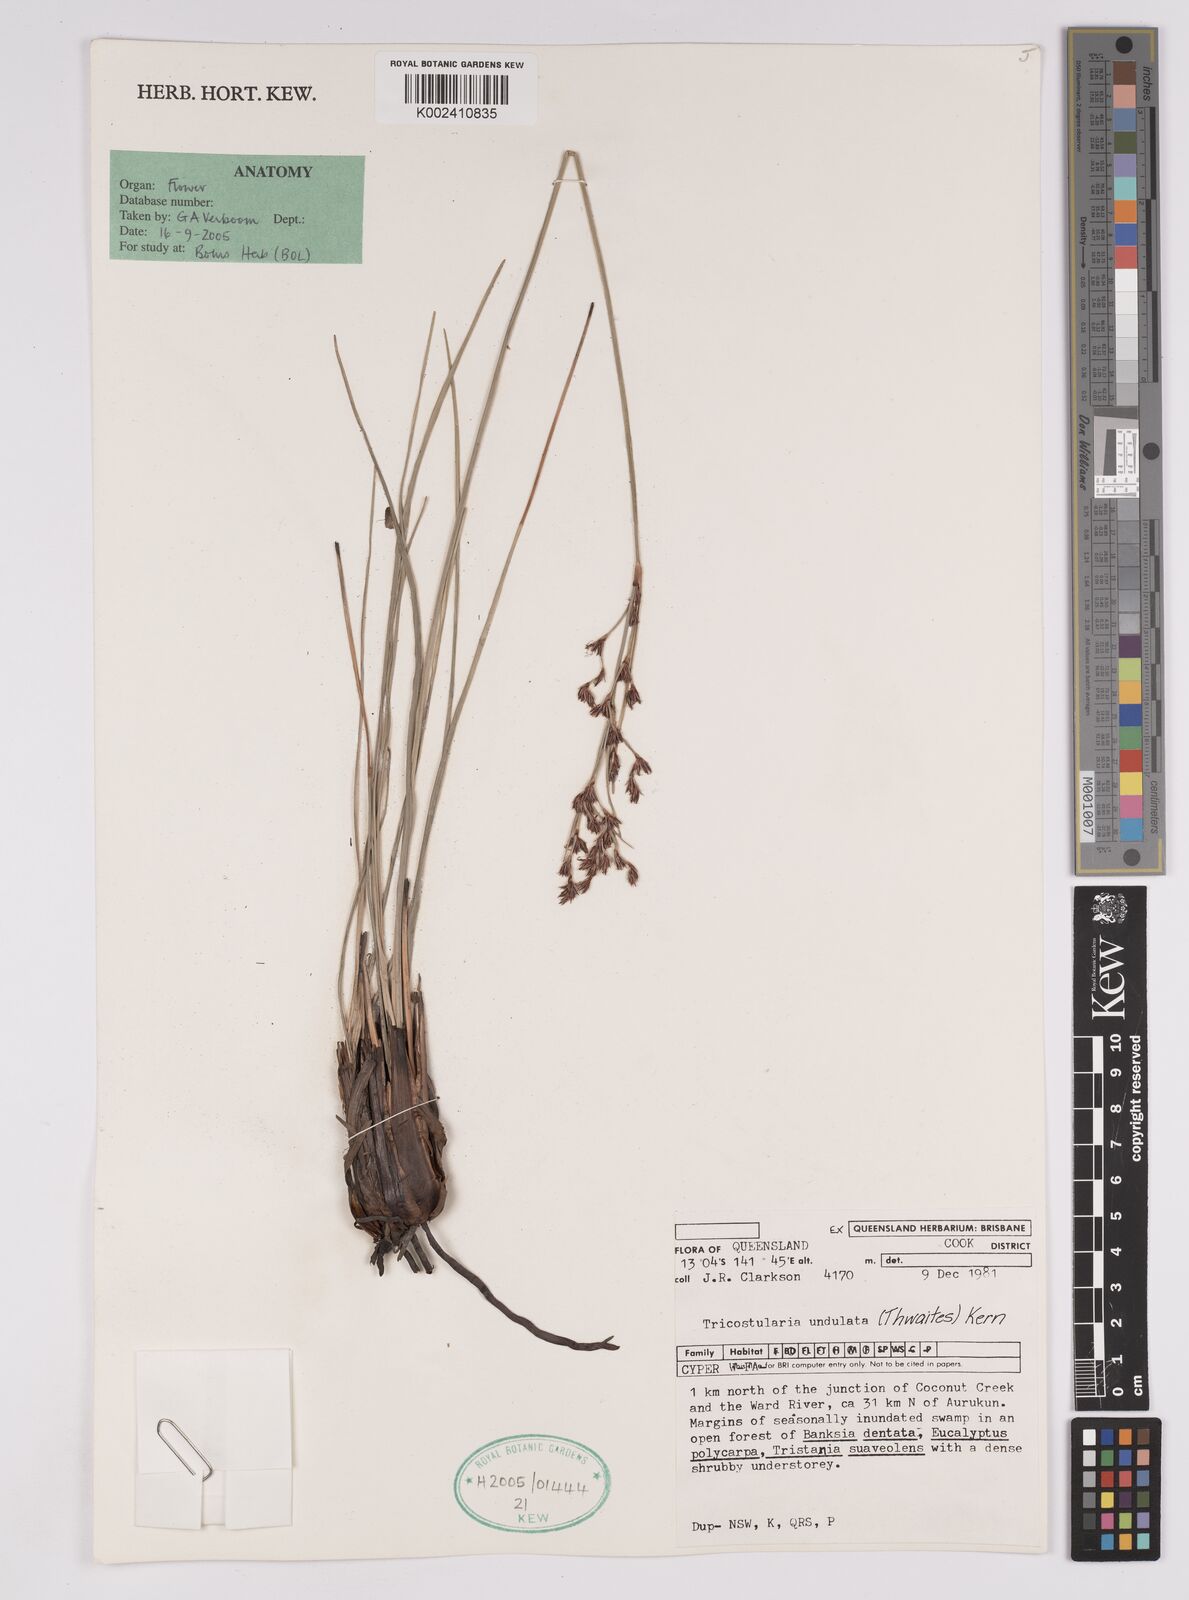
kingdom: Plantae
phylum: Tracheophyta
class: Liliopsida
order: Poales
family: Cyperaceae
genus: Anthelepis
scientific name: Anthelepis undulata
